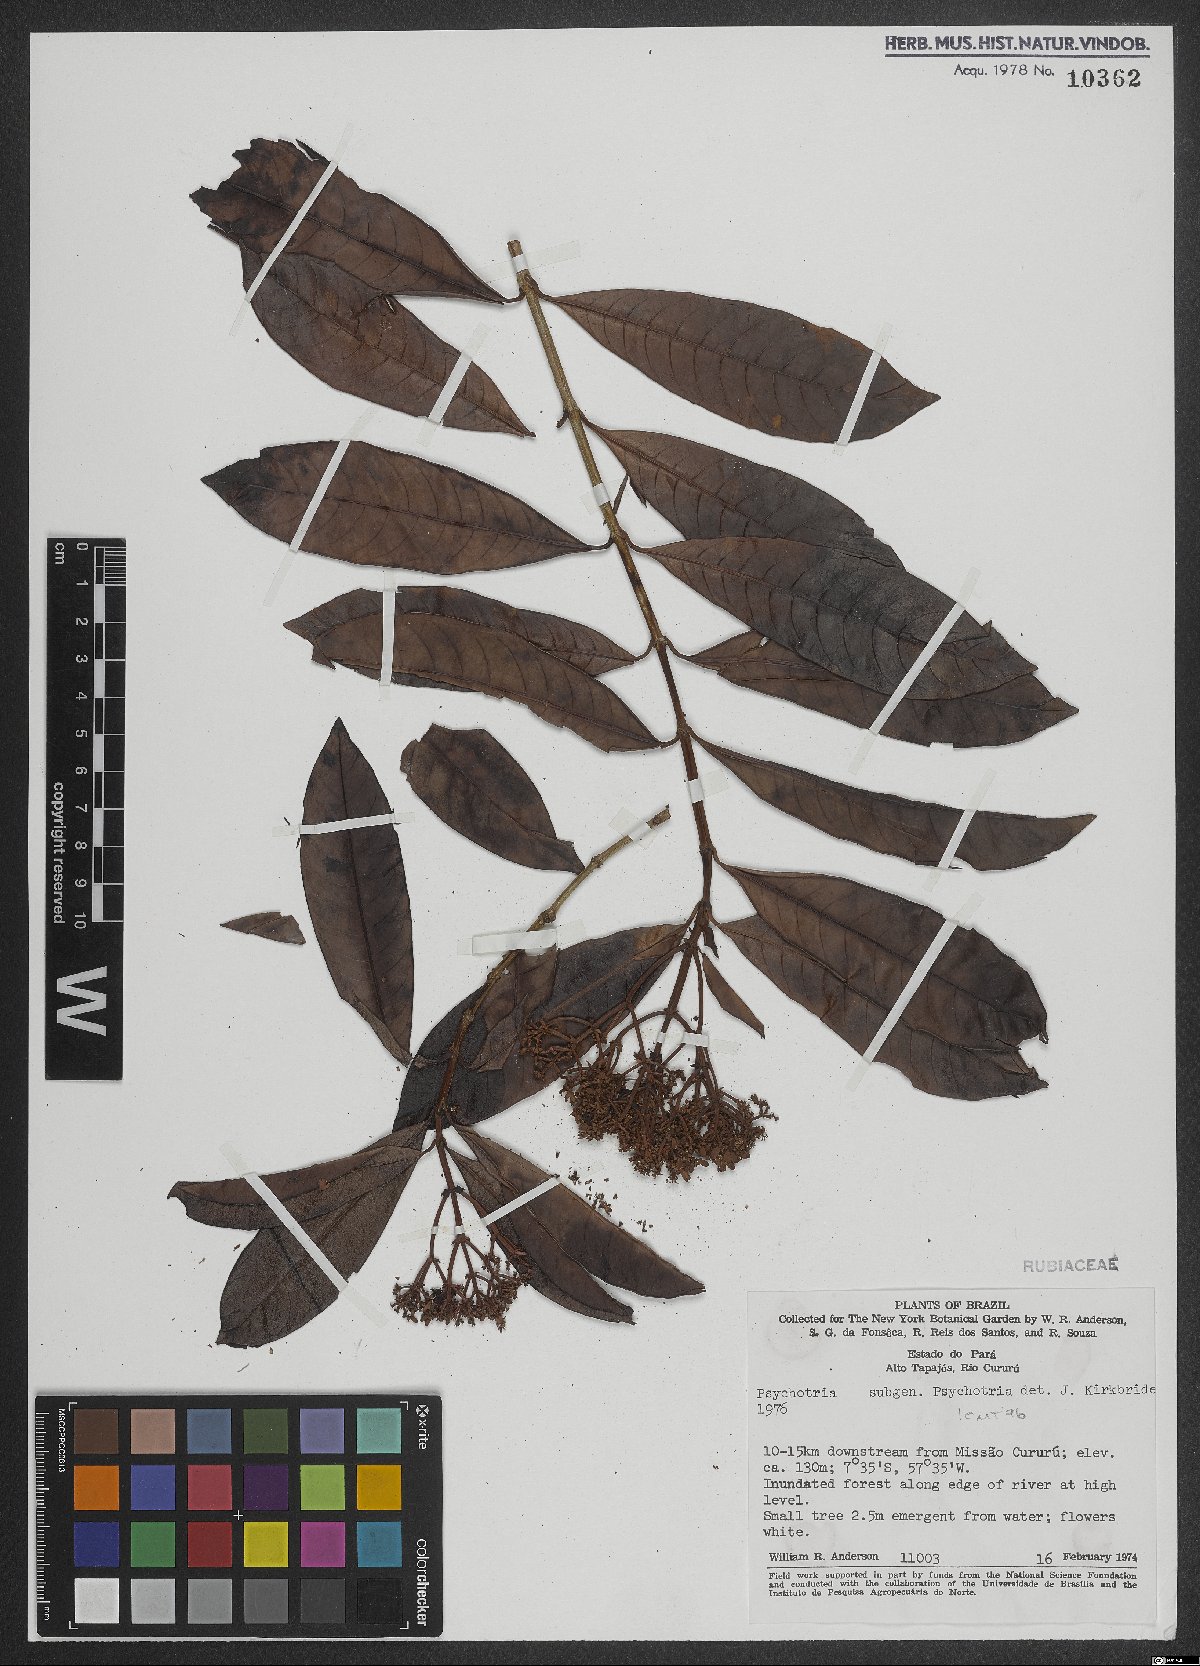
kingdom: Plantae
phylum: Tracheophyta
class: Magnoliopsida
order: Gentianales
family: Rubiaceae
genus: Psychotria
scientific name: Psychotria
